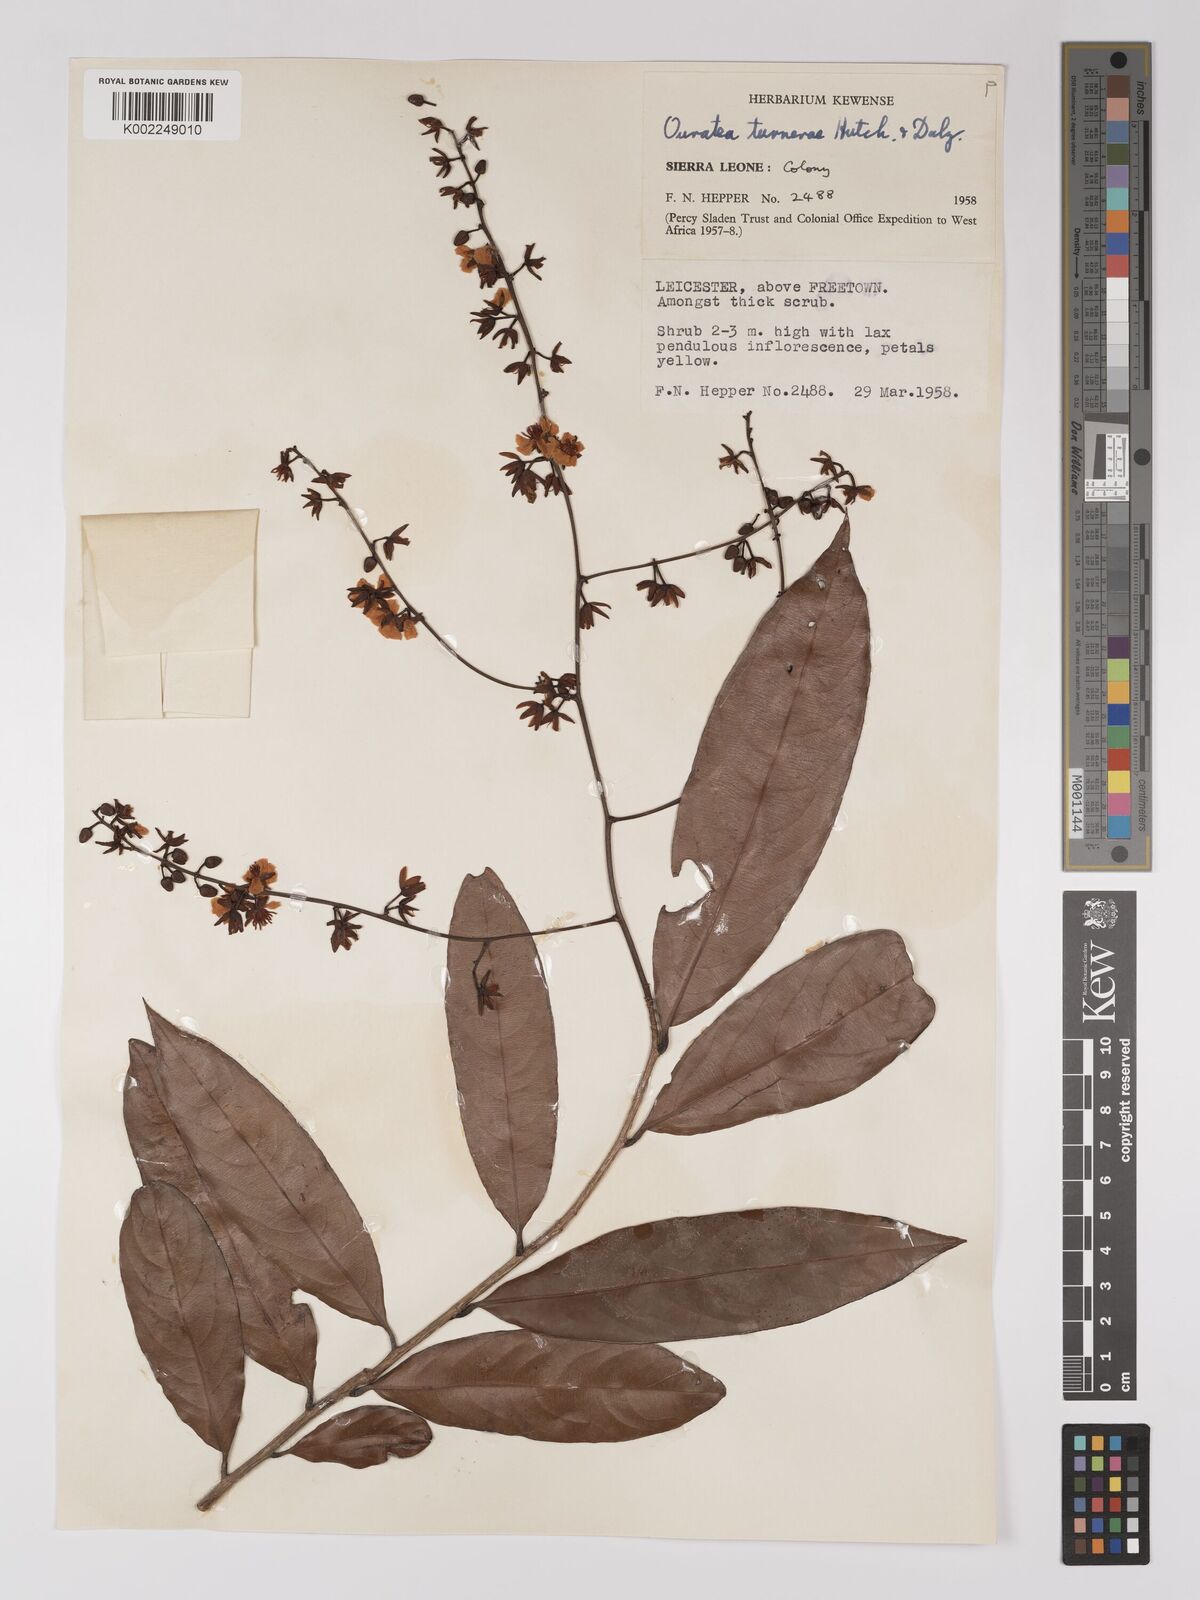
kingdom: Plantae
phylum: Tracheophyta
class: Magnoliopsida
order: Malpighiales
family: Ochnaceae
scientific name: Ochnaceae
